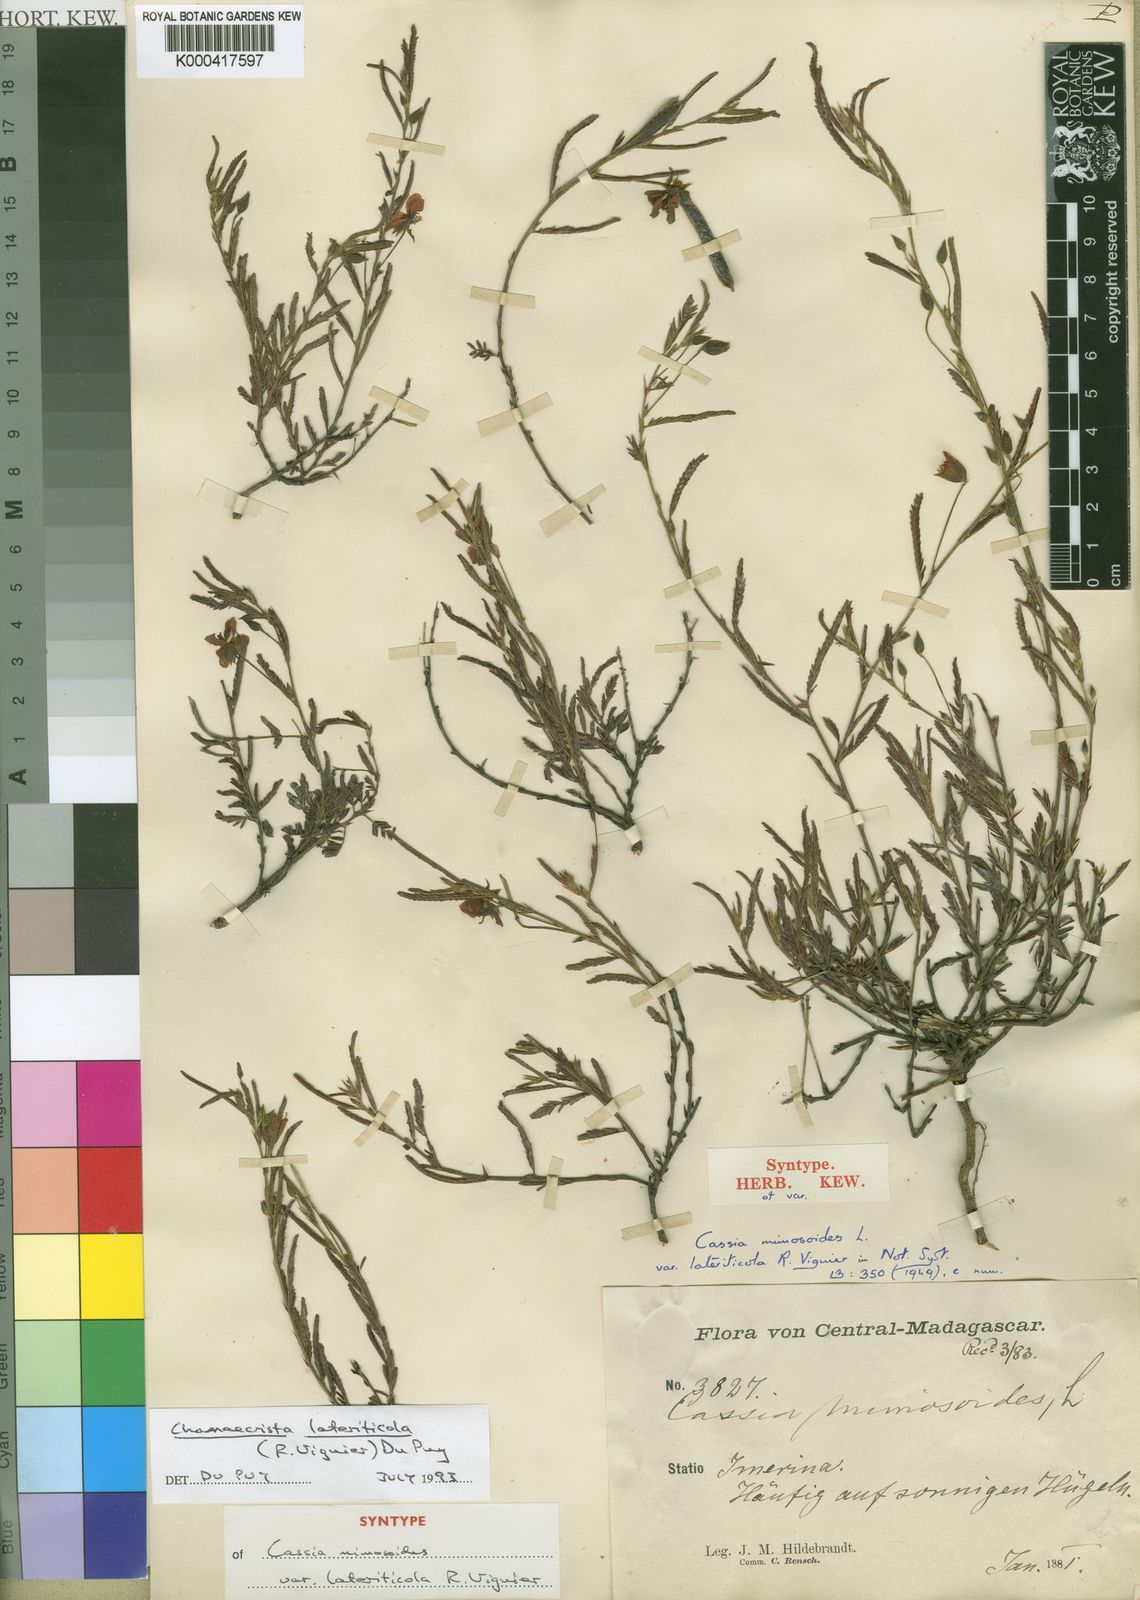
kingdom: Plantae
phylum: Tracheophyta
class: Magnoliopsida
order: Fabales
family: Fabaceae
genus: Chamaecrista
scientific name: Chamaecrista lateriticola
